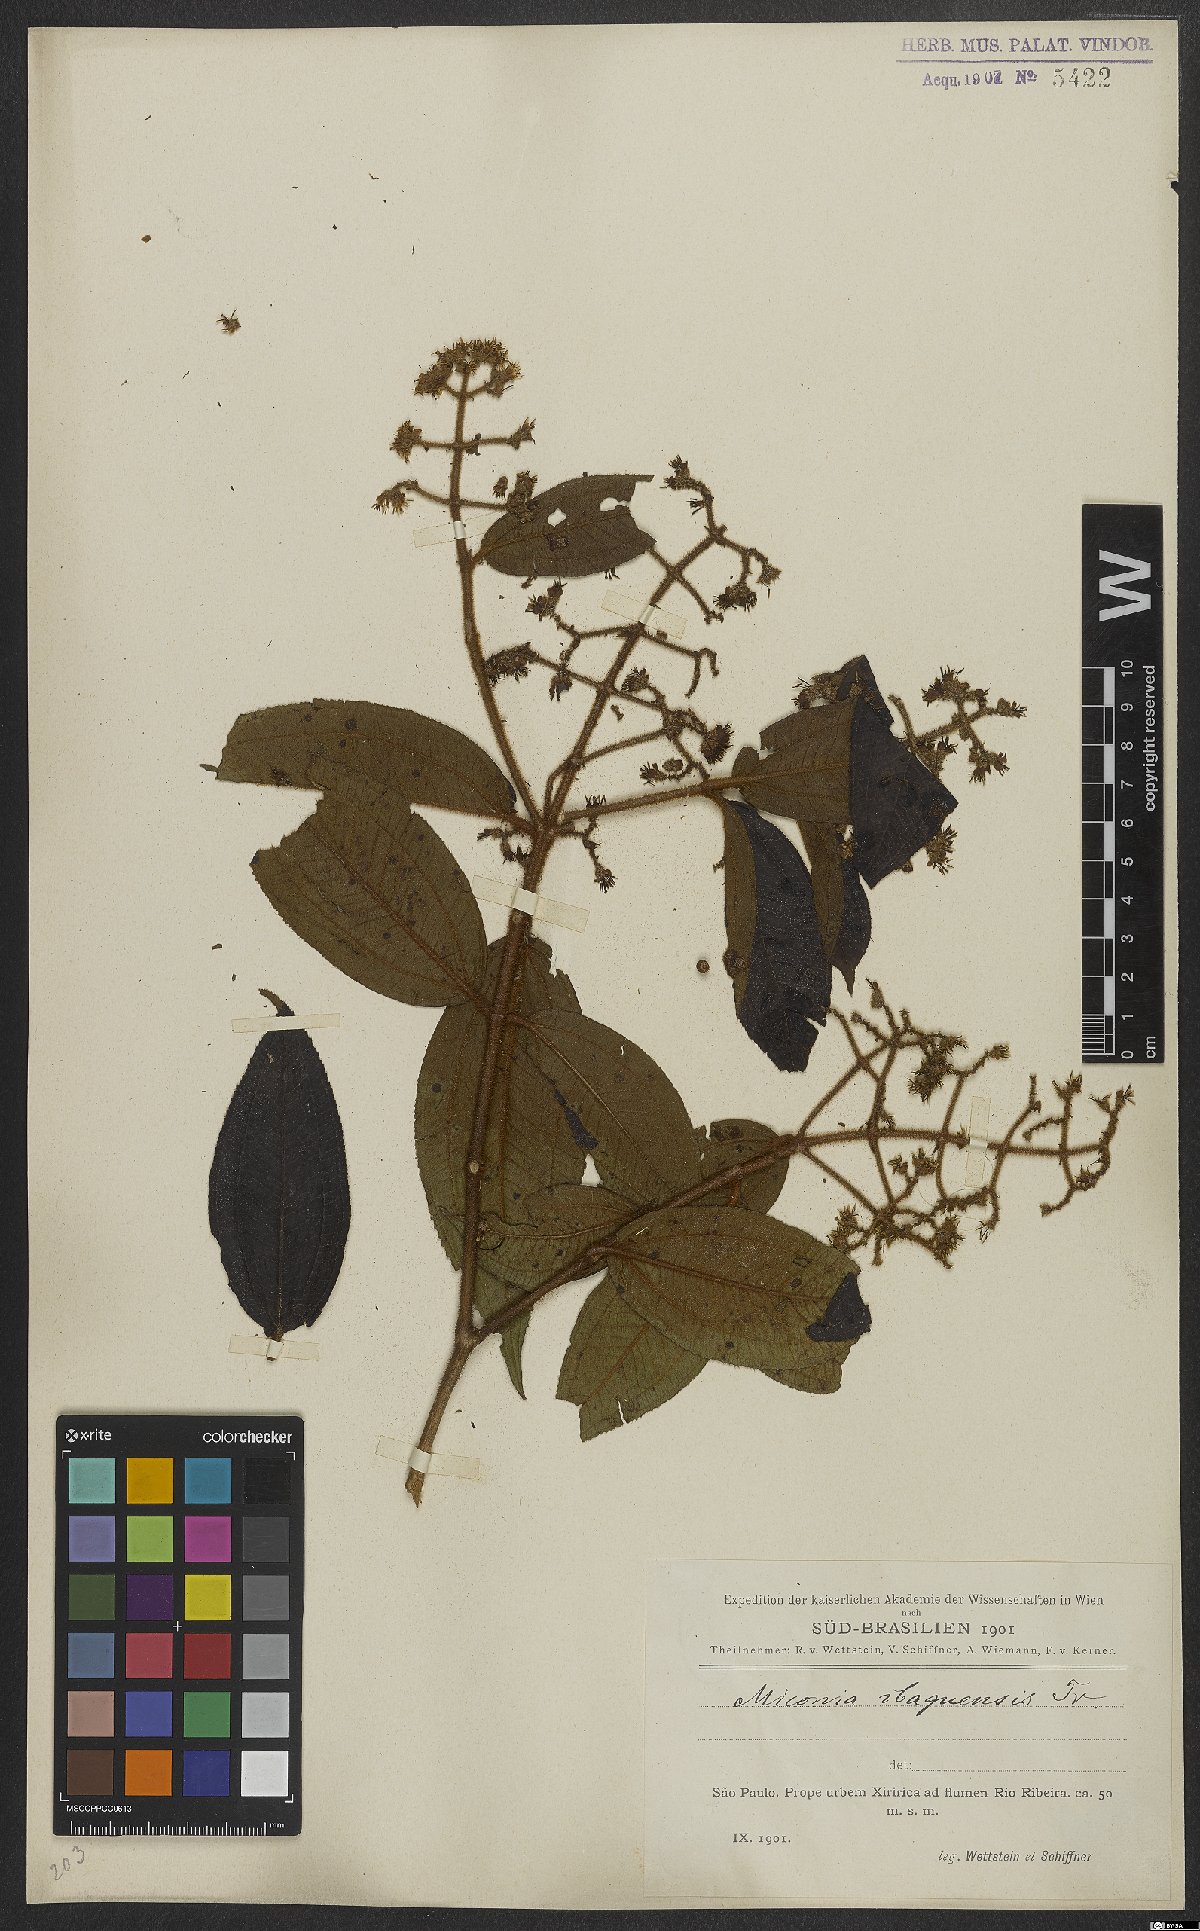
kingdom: Plantae
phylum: Tracheophyta
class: Magnoliopsida
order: Myrtales
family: Melastomataceae
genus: Miconia
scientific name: Miconia ibaguensis
